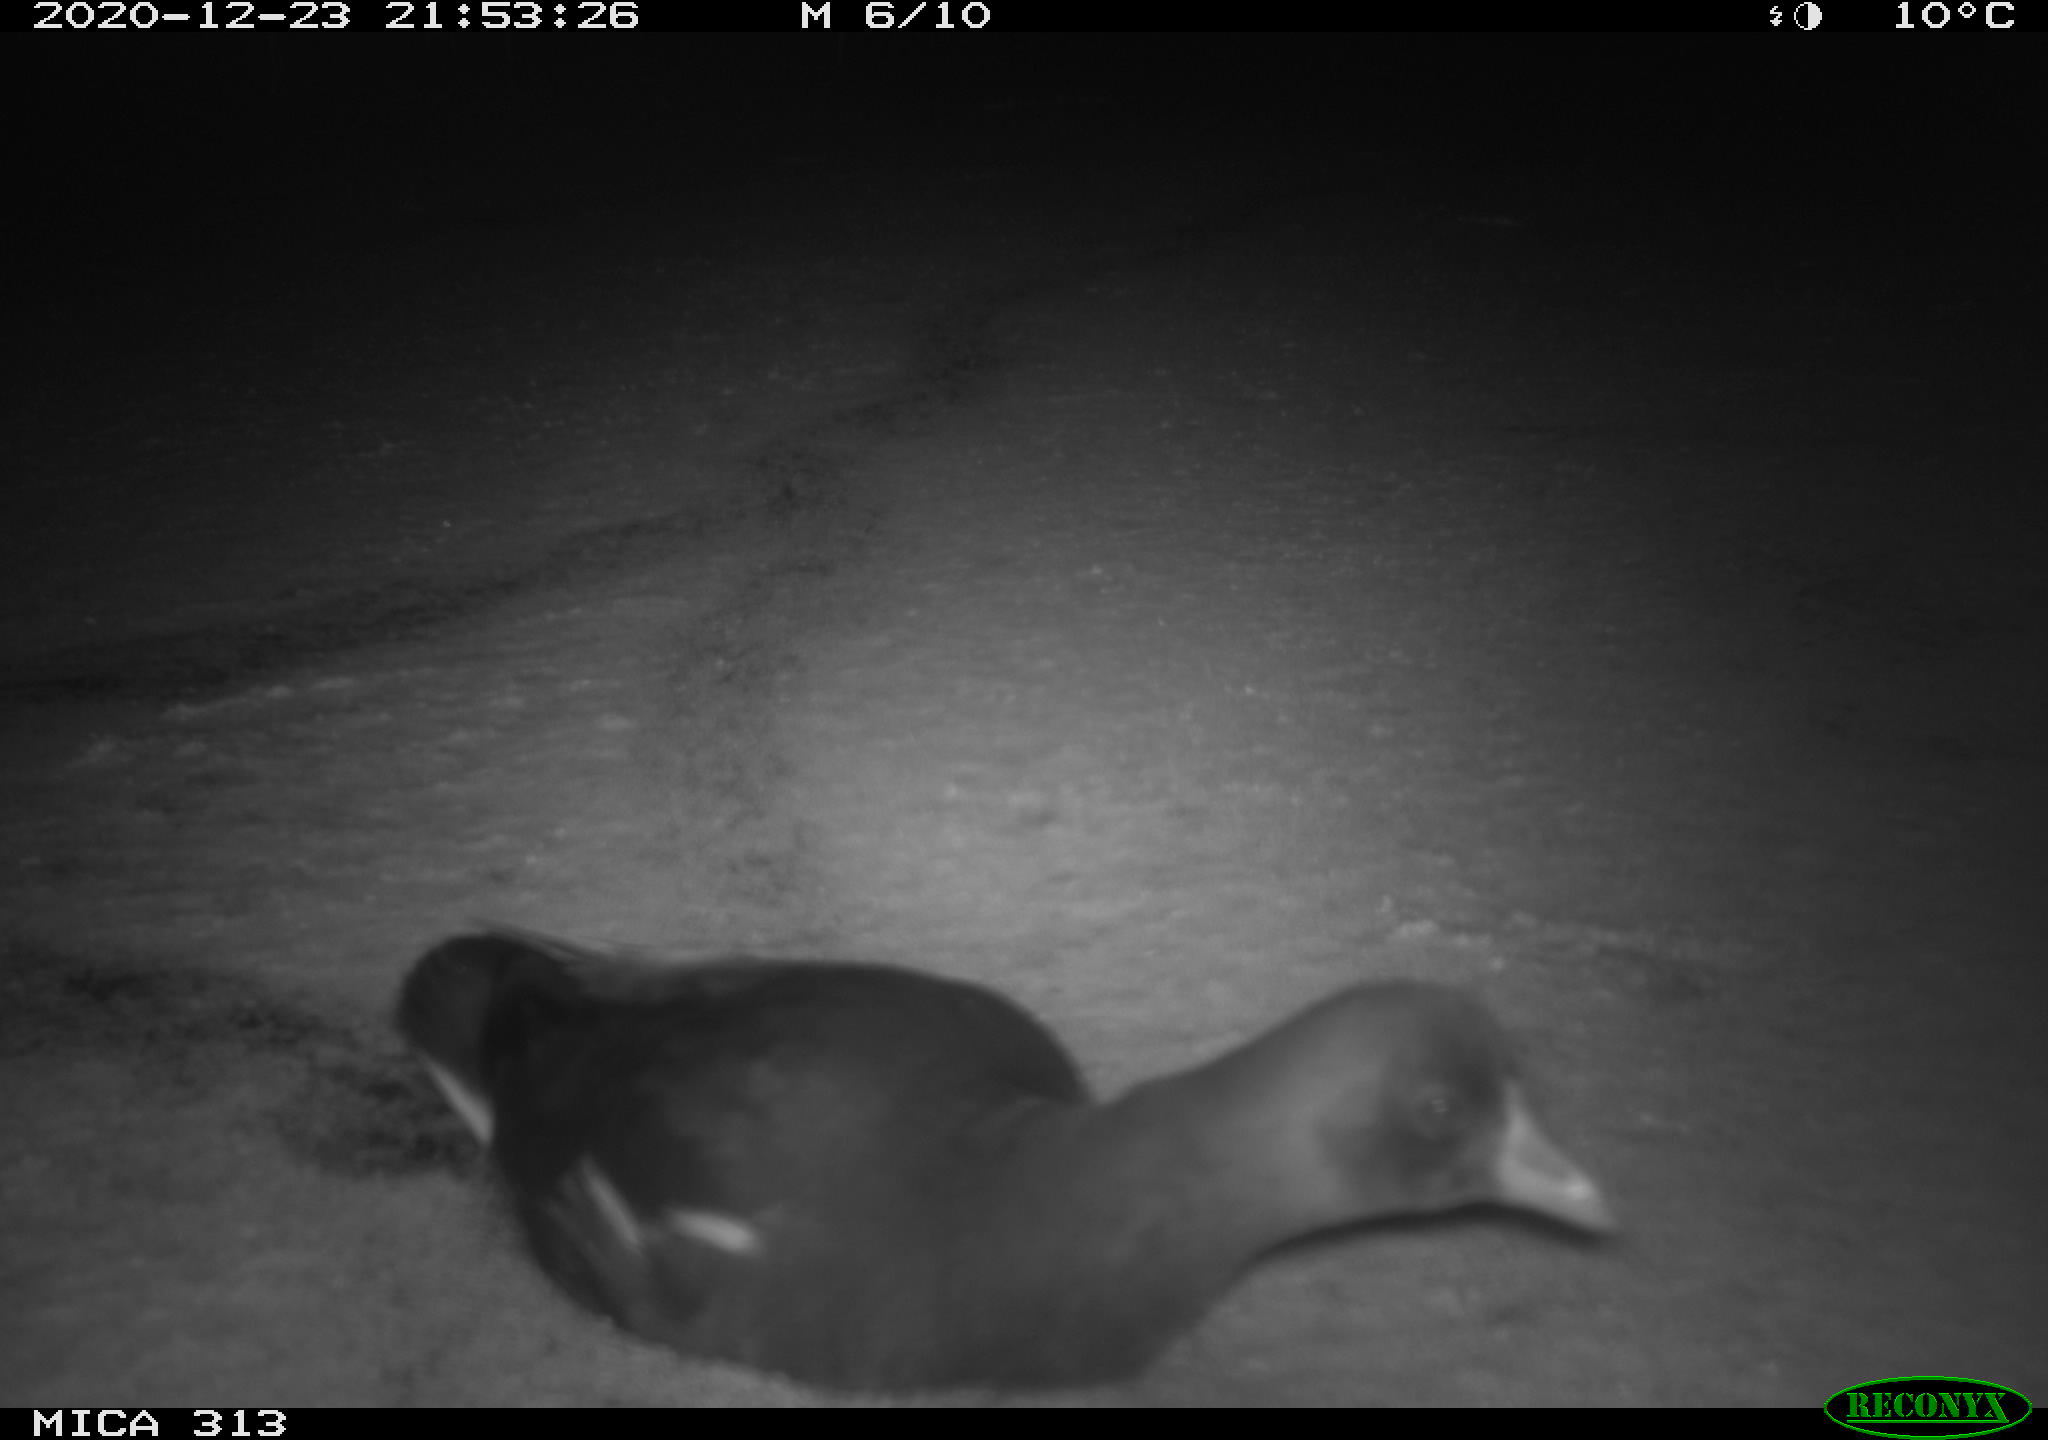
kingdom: Animalia
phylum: Chordata
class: Aves
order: Gruiformes
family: Rallidae
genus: Gallinula
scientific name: Gallinula chloropus
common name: Common moorhen
